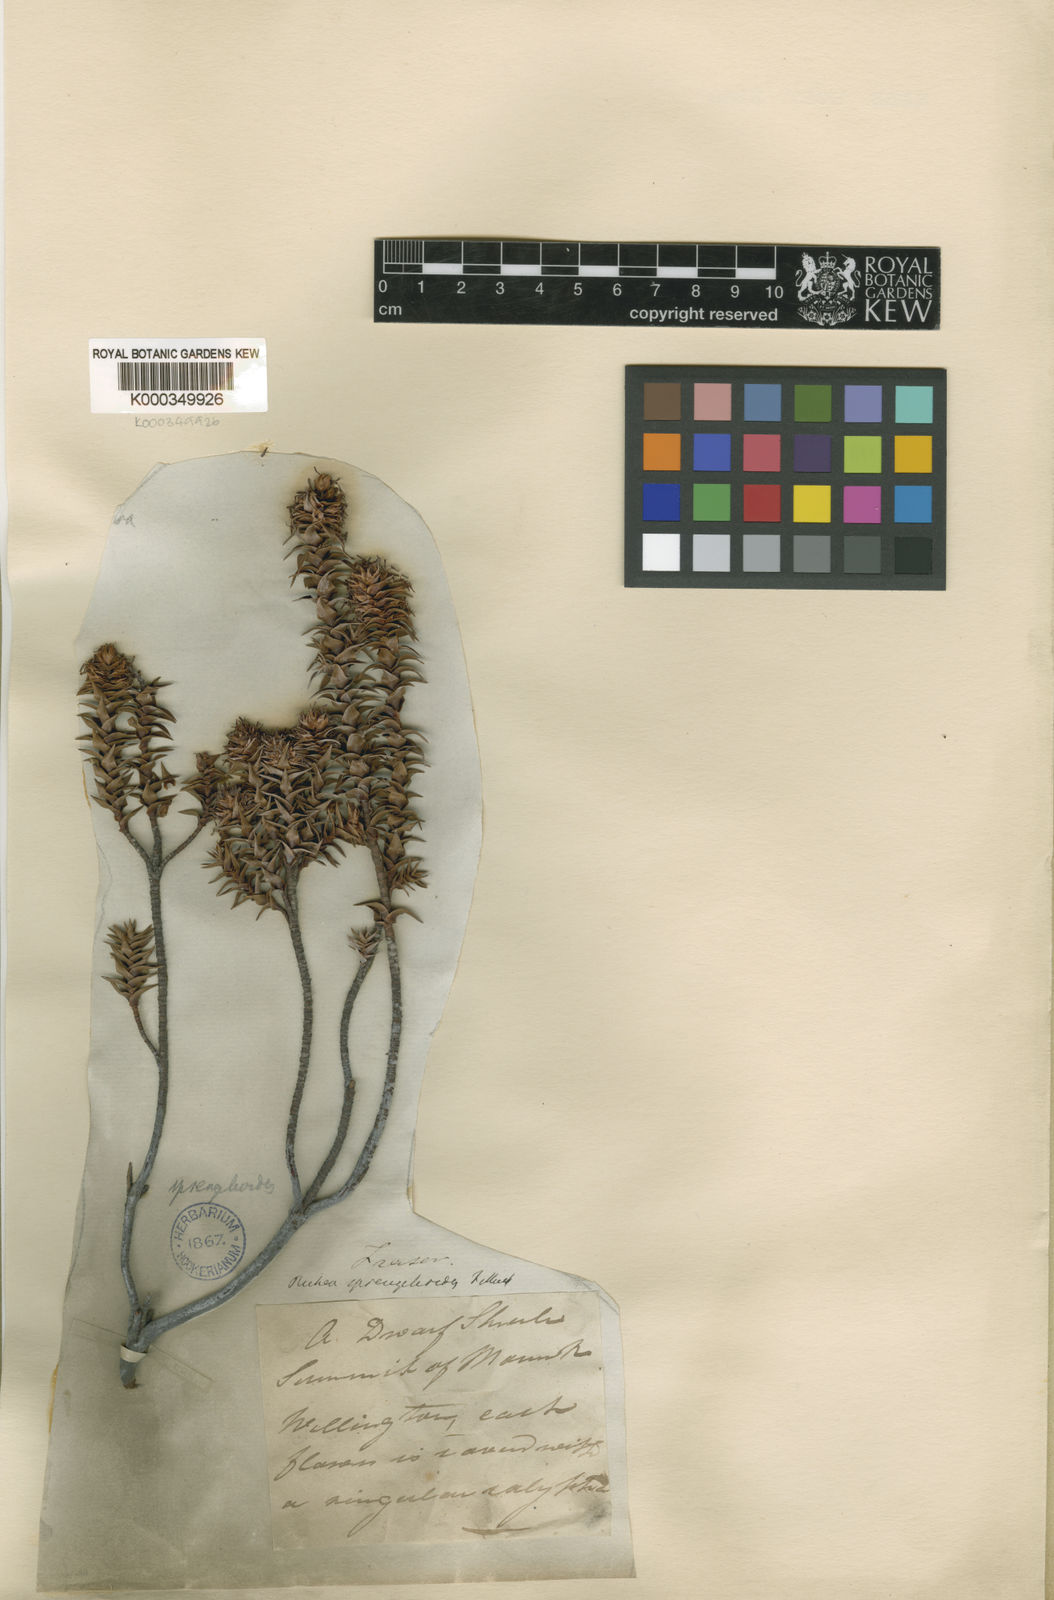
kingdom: Plantae
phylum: Tracheophyta
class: Magnoliopsida
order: Ericales
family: Ericaceae
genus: Dracophyllum
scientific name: Dracophyllum sprengelioides
